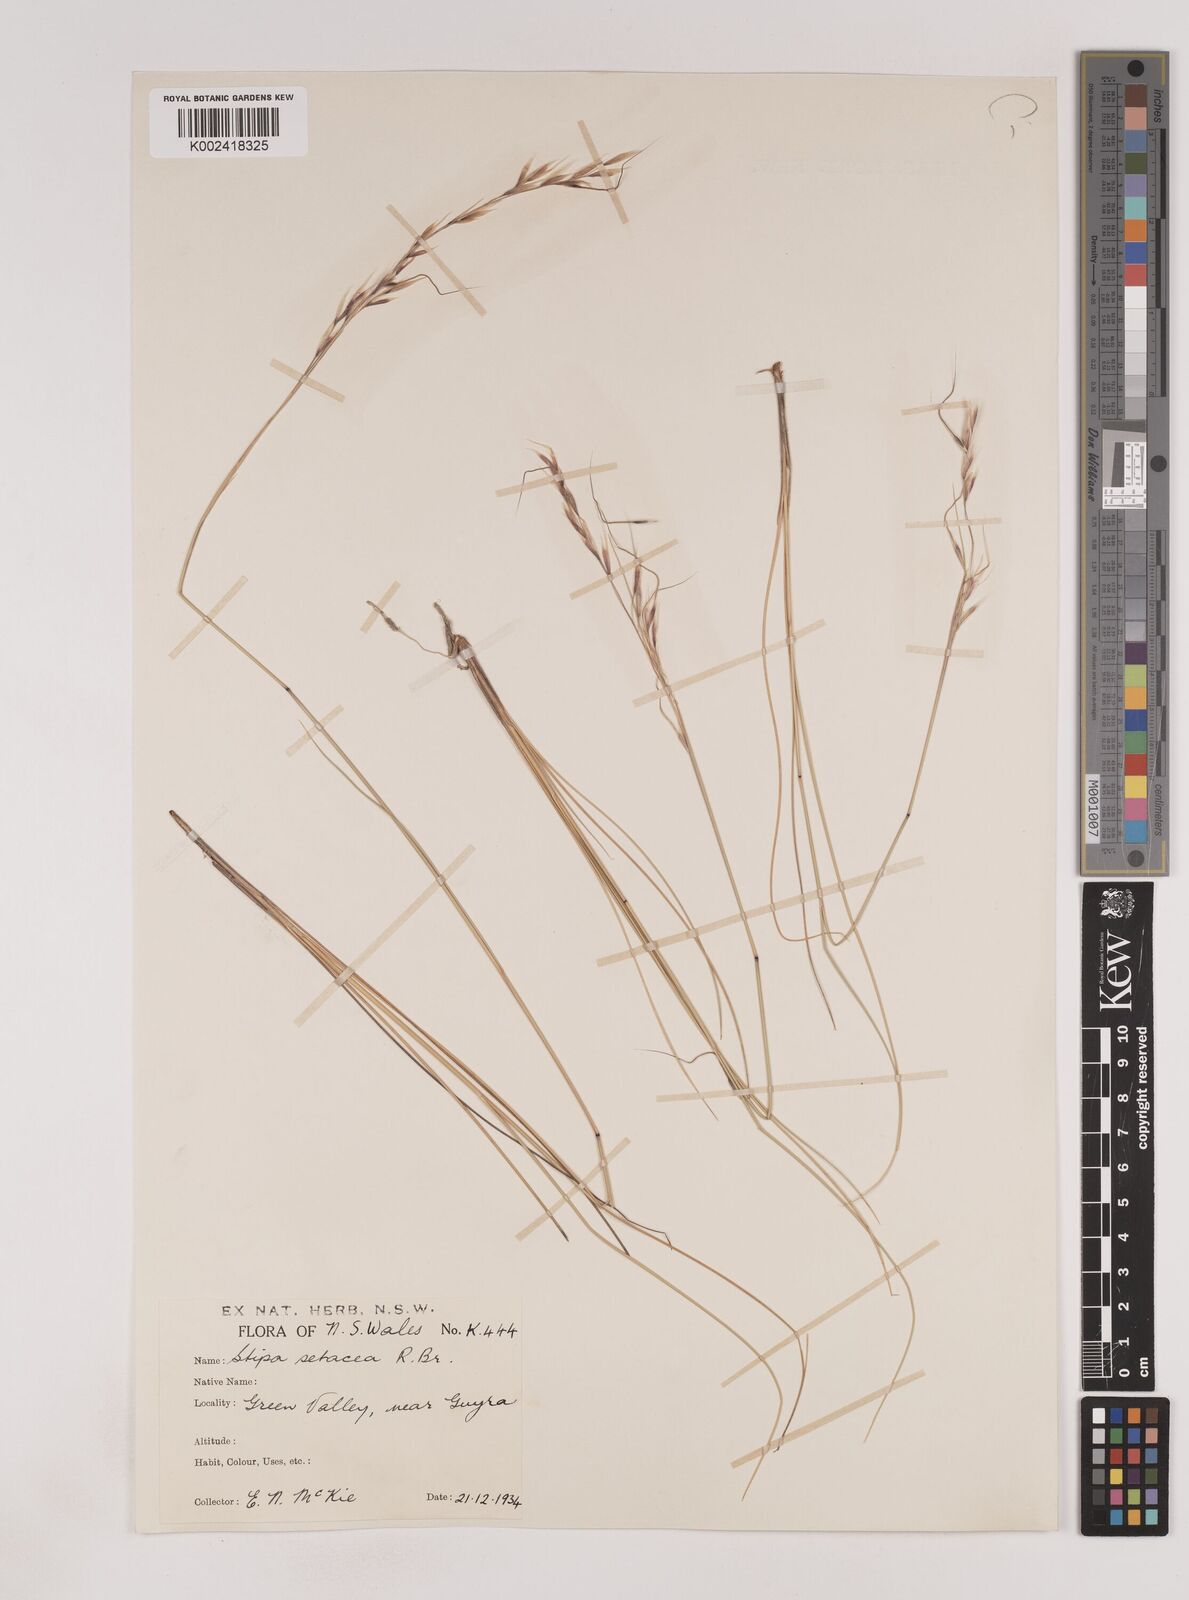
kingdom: Plantae
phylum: Tracheophyta
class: Liliopsida
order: Poales
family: Poaceae
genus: Piptochaetium
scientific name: Piptochaetium
